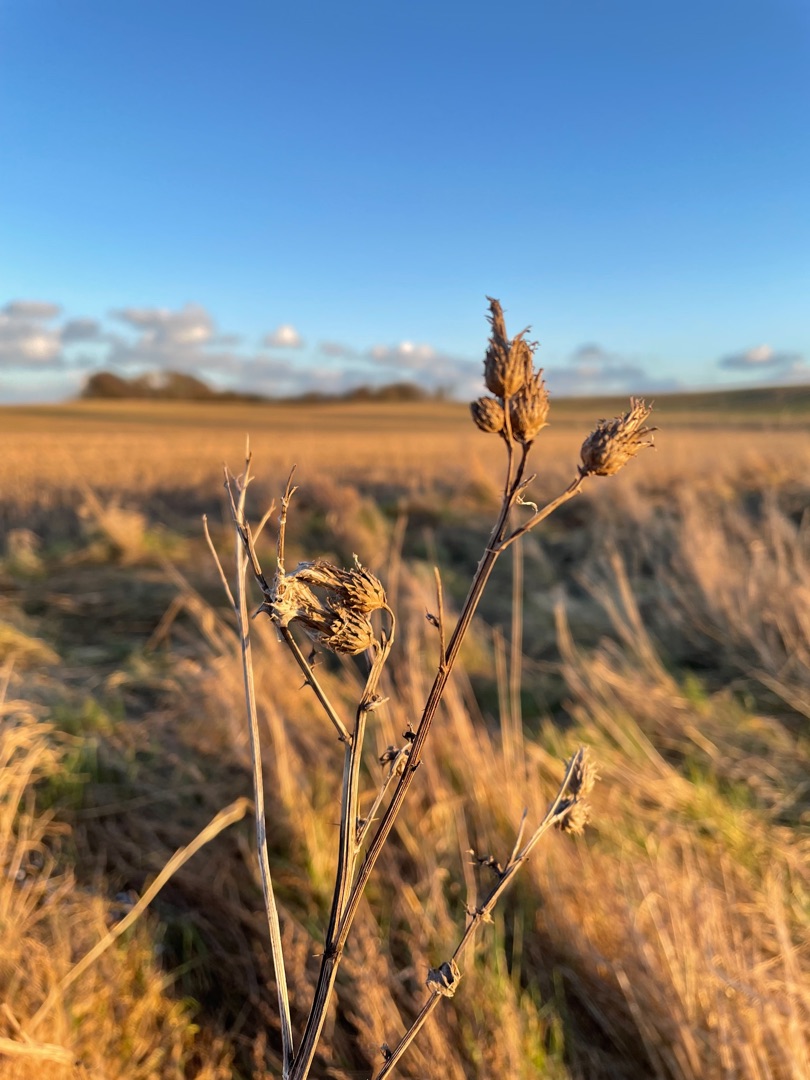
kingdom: Plantae
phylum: Tracheophyta
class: Magnoliopsida
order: Asterales
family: Asteraceae
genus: Cirsium
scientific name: Cirsium arvense
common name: Ager-tidsel
